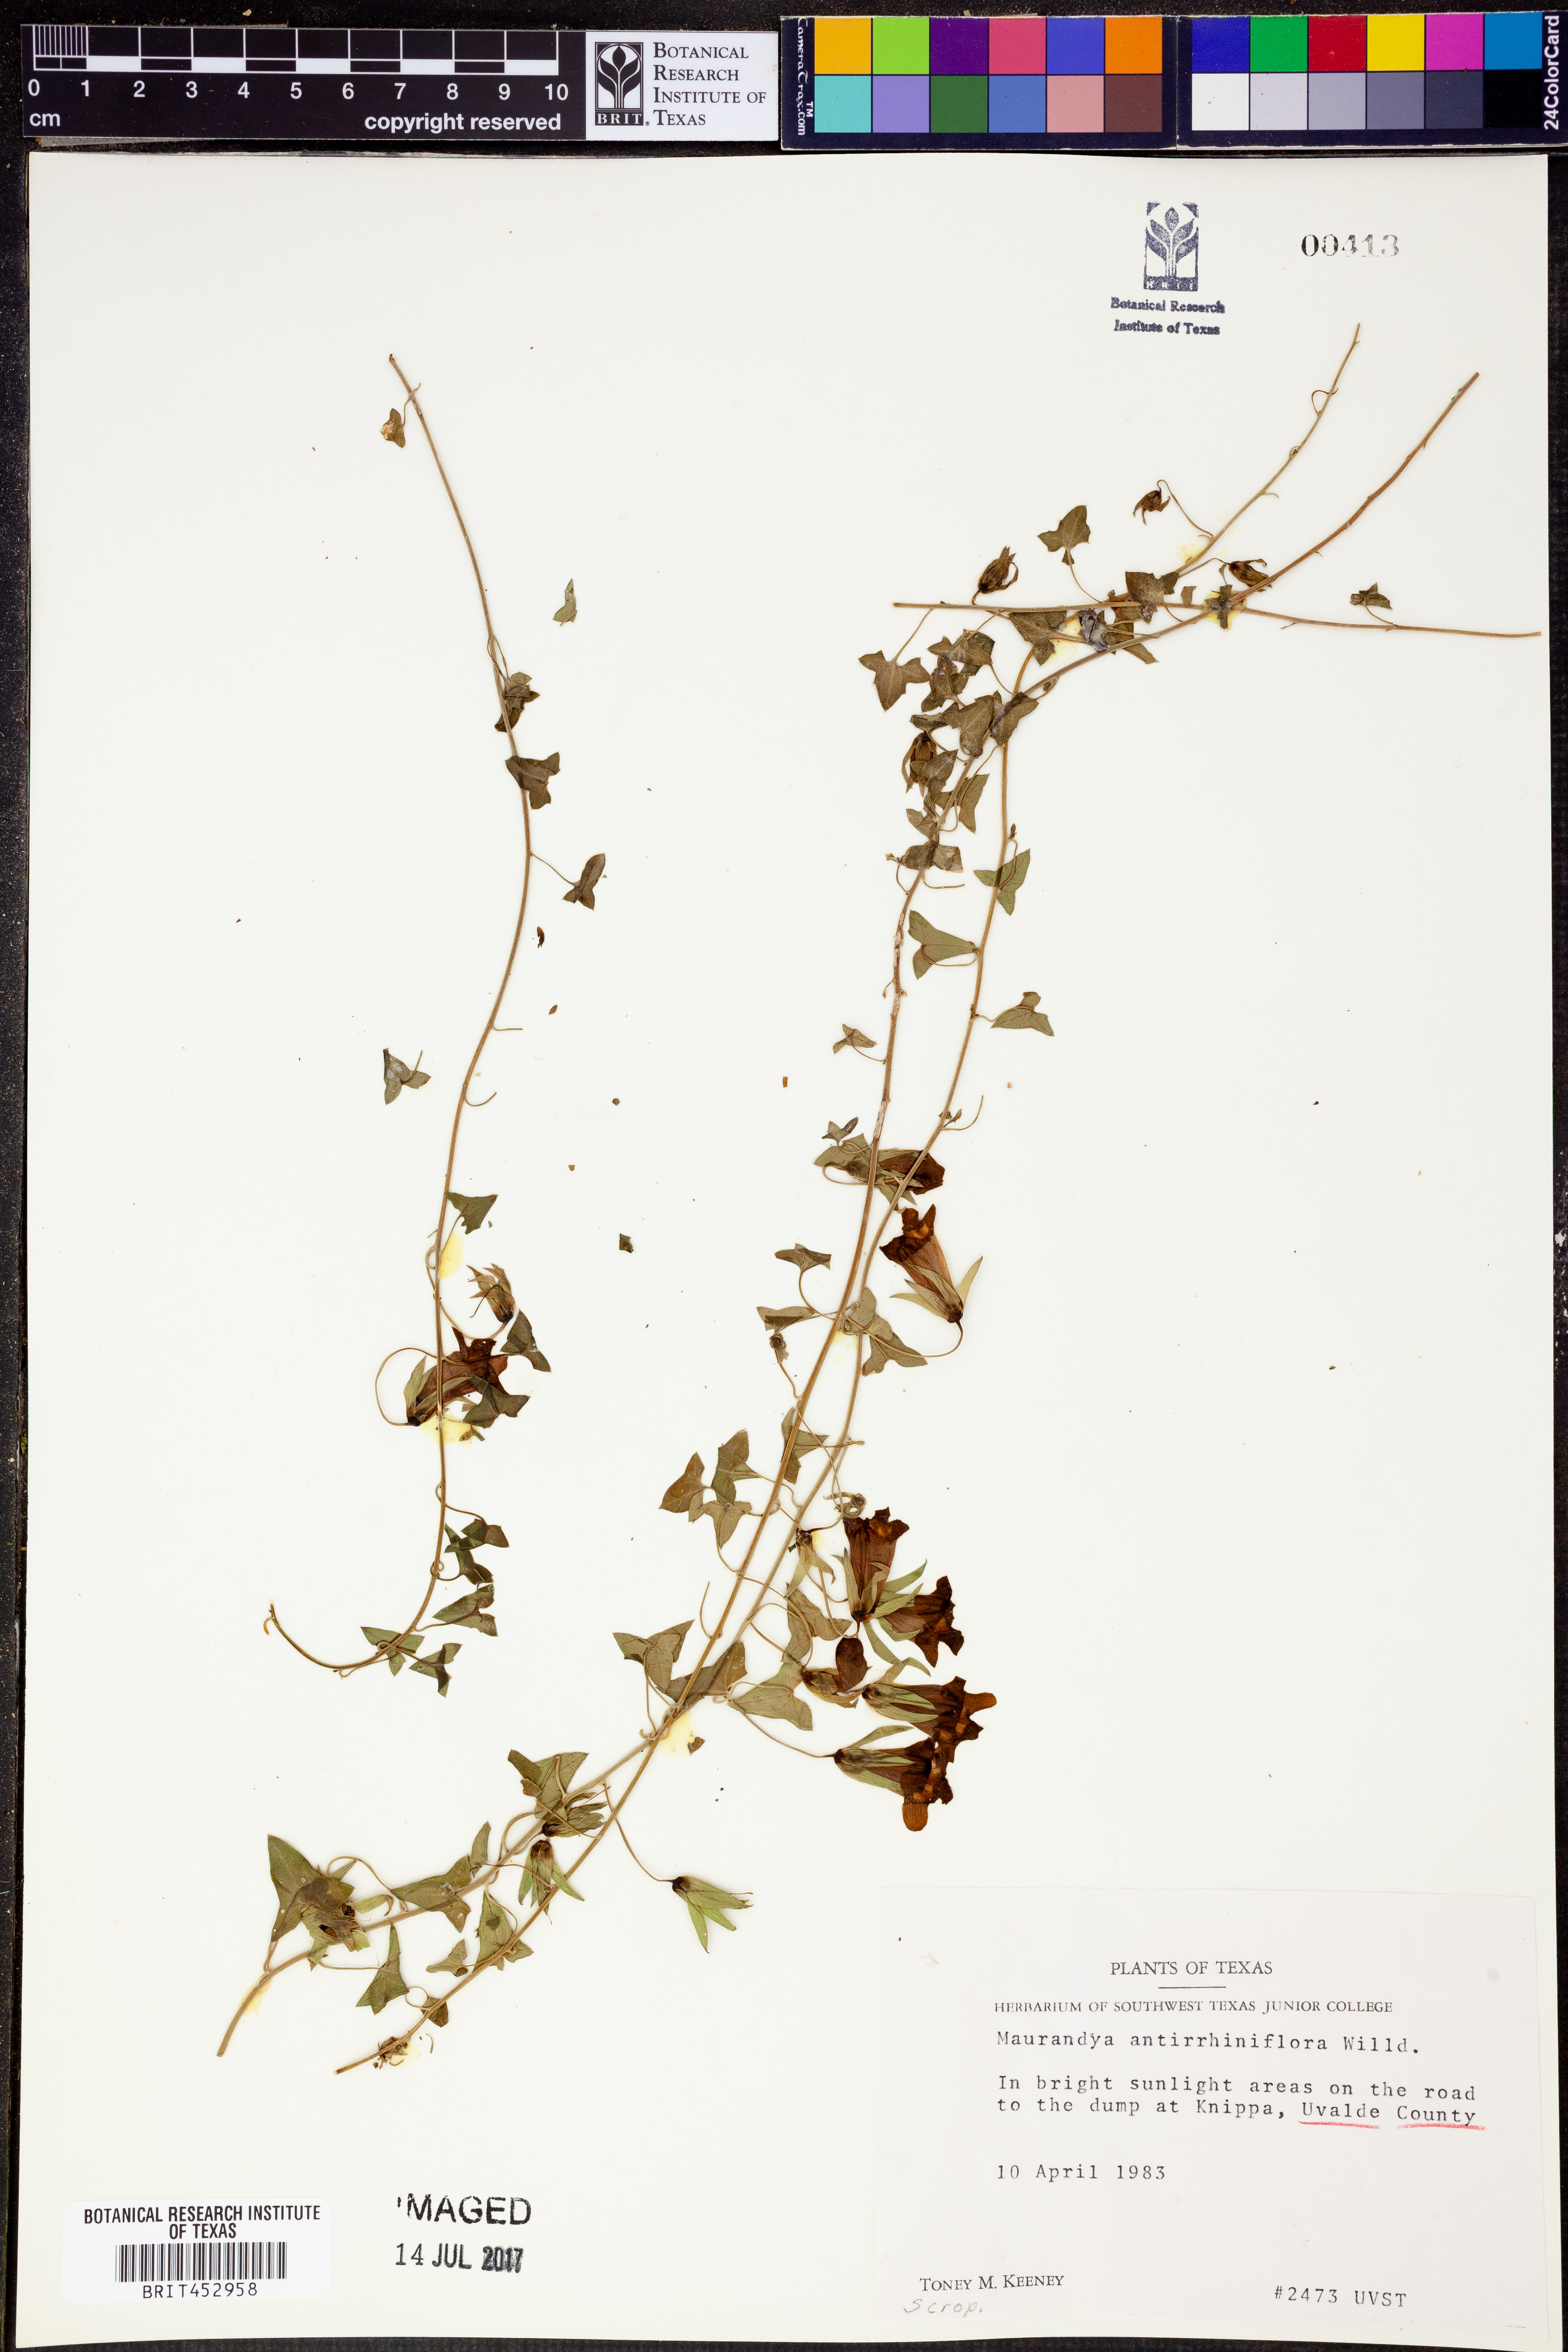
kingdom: Plantae
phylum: Tracheophyta
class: Magnoliopsida
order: Lamiales
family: Plantaginaceae
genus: Maurandella
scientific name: Maurandella antirrhiniflora
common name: Violet twining-snapdragon
